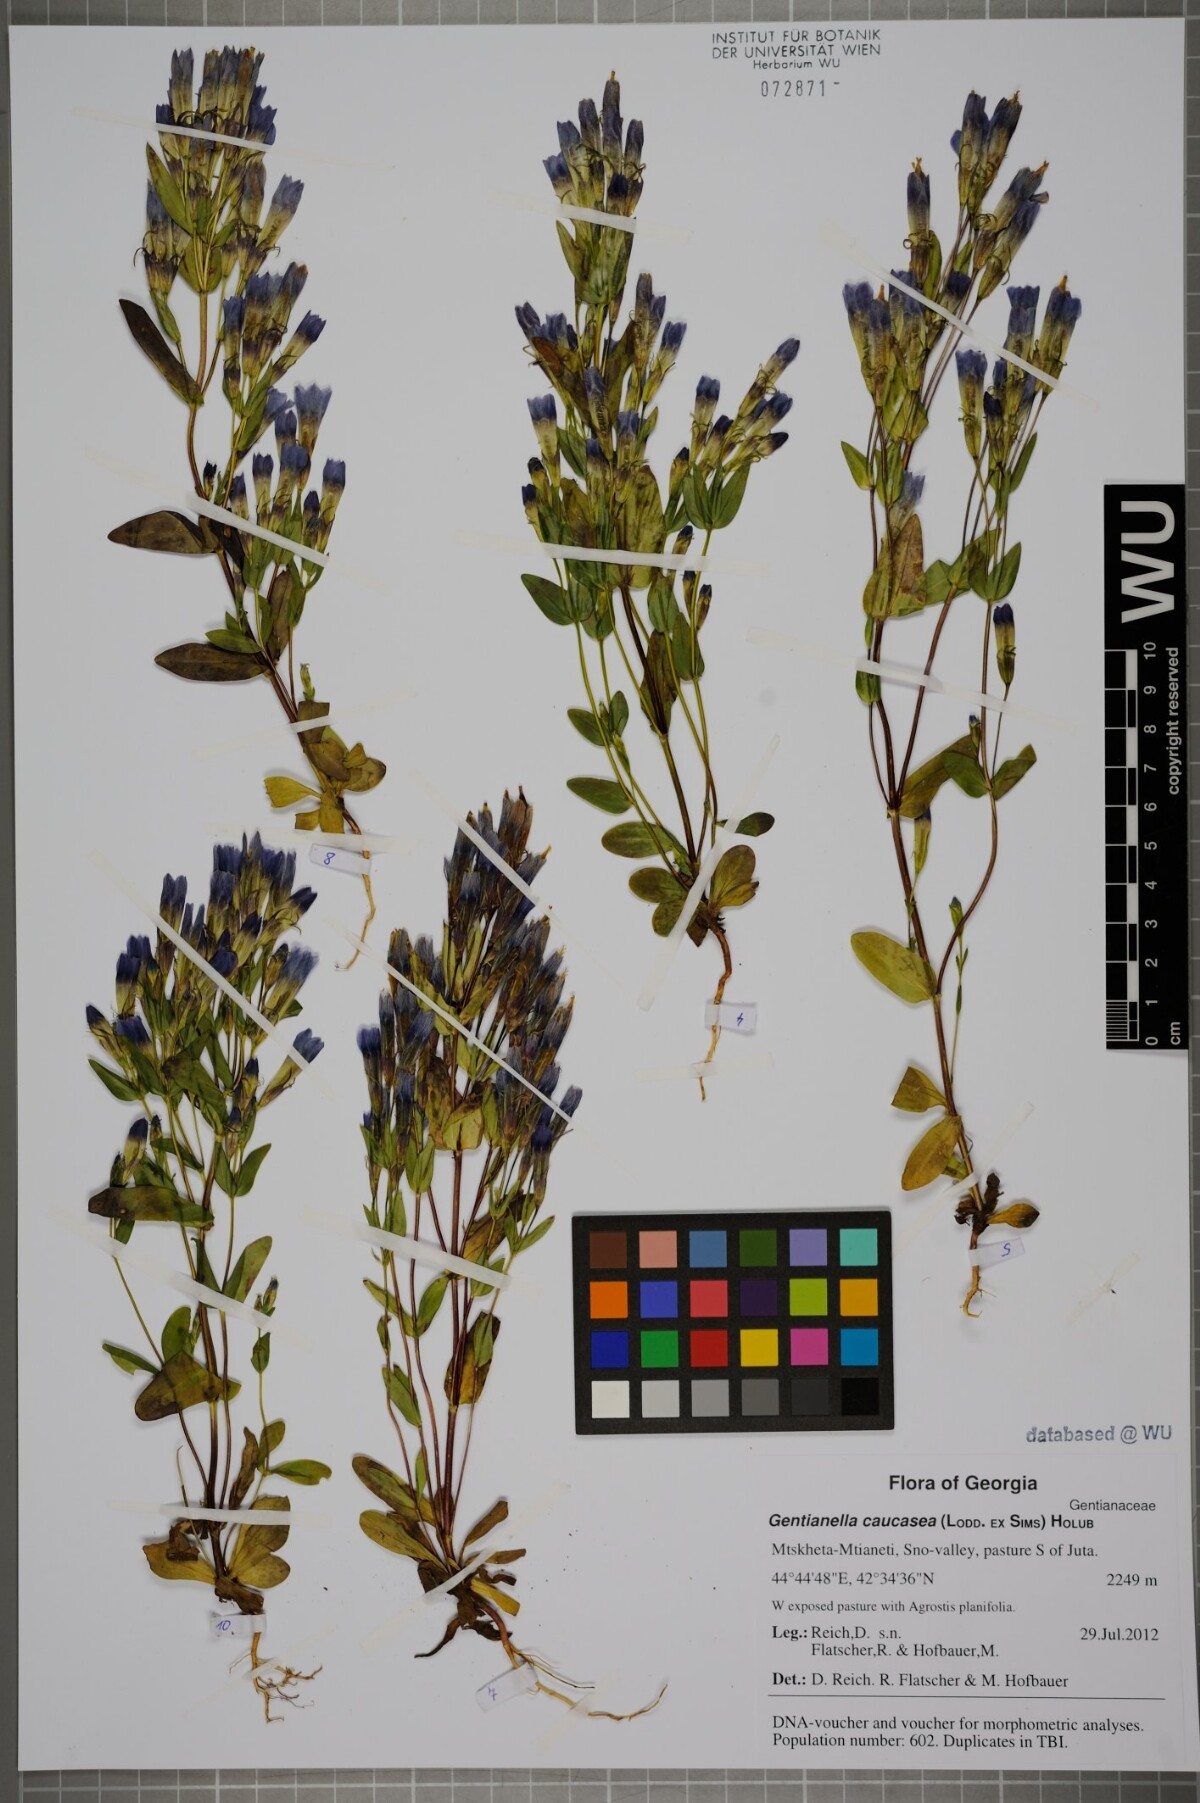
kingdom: Plantae
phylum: Tracheophyta
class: Magnoliopsida
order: Gentianales
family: Gentianaceae
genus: Gentianella
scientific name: Gentianella caucasea
